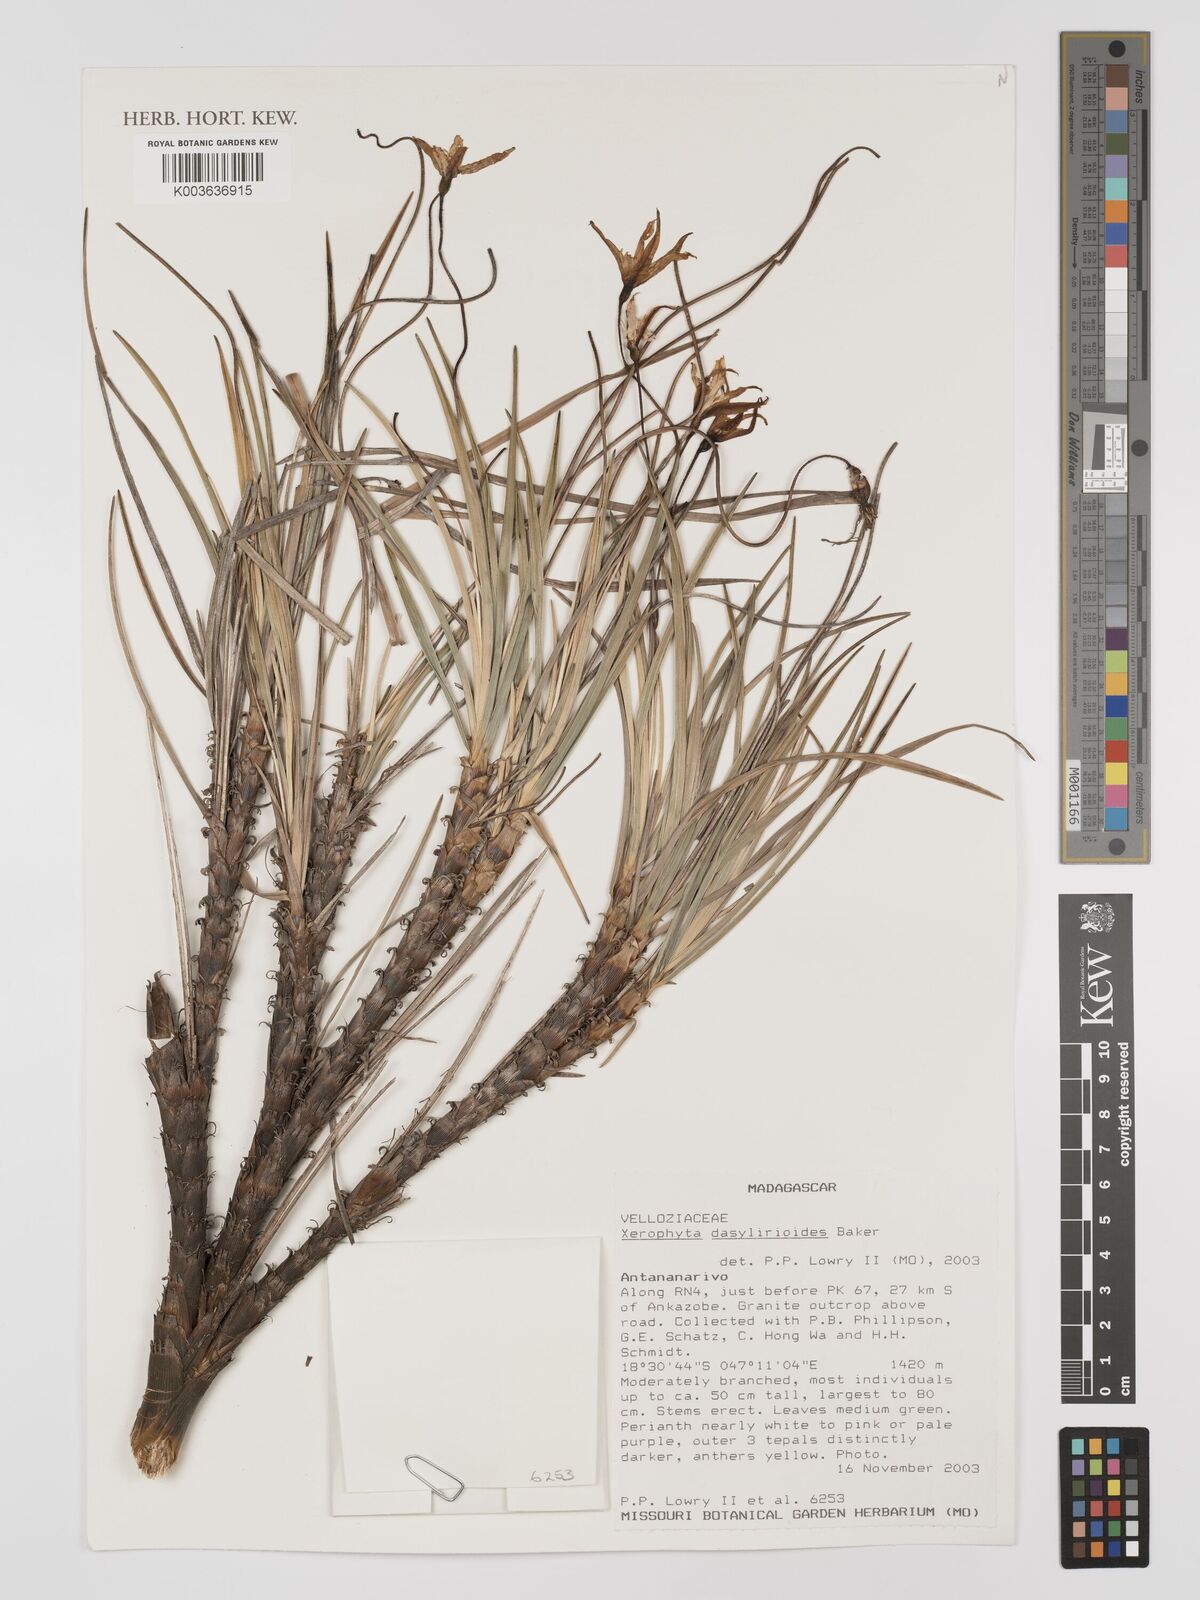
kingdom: Plantae
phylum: Tracheophyta
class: Liliopsida
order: Pandanales
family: Velloziaceae
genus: Xerophyta
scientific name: Xerophyta dasylirioides
